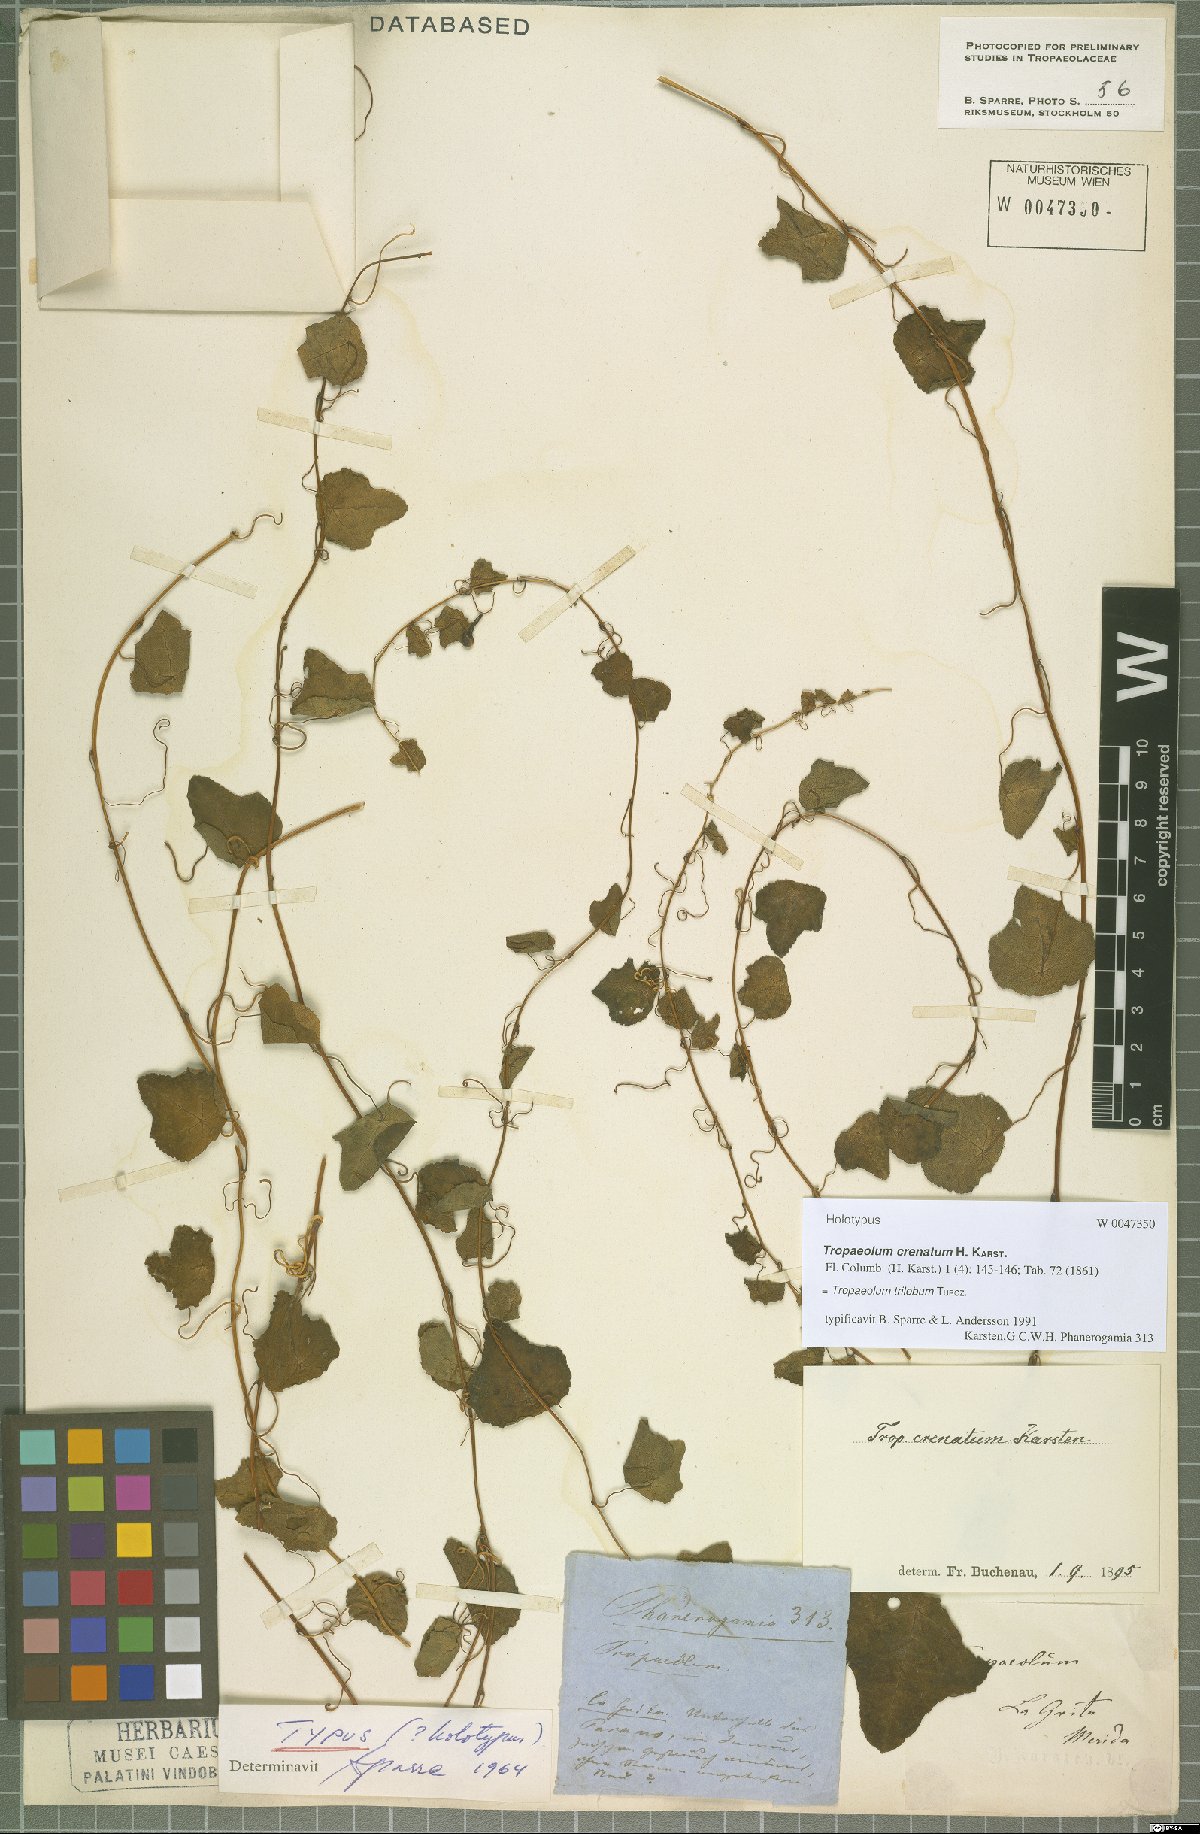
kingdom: Plantae
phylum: Tracheophyta
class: Magnoliopsida
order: Brassicales
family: Tropaeolaceae
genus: Tropaeolum
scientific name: Tropaeolum trilobum
